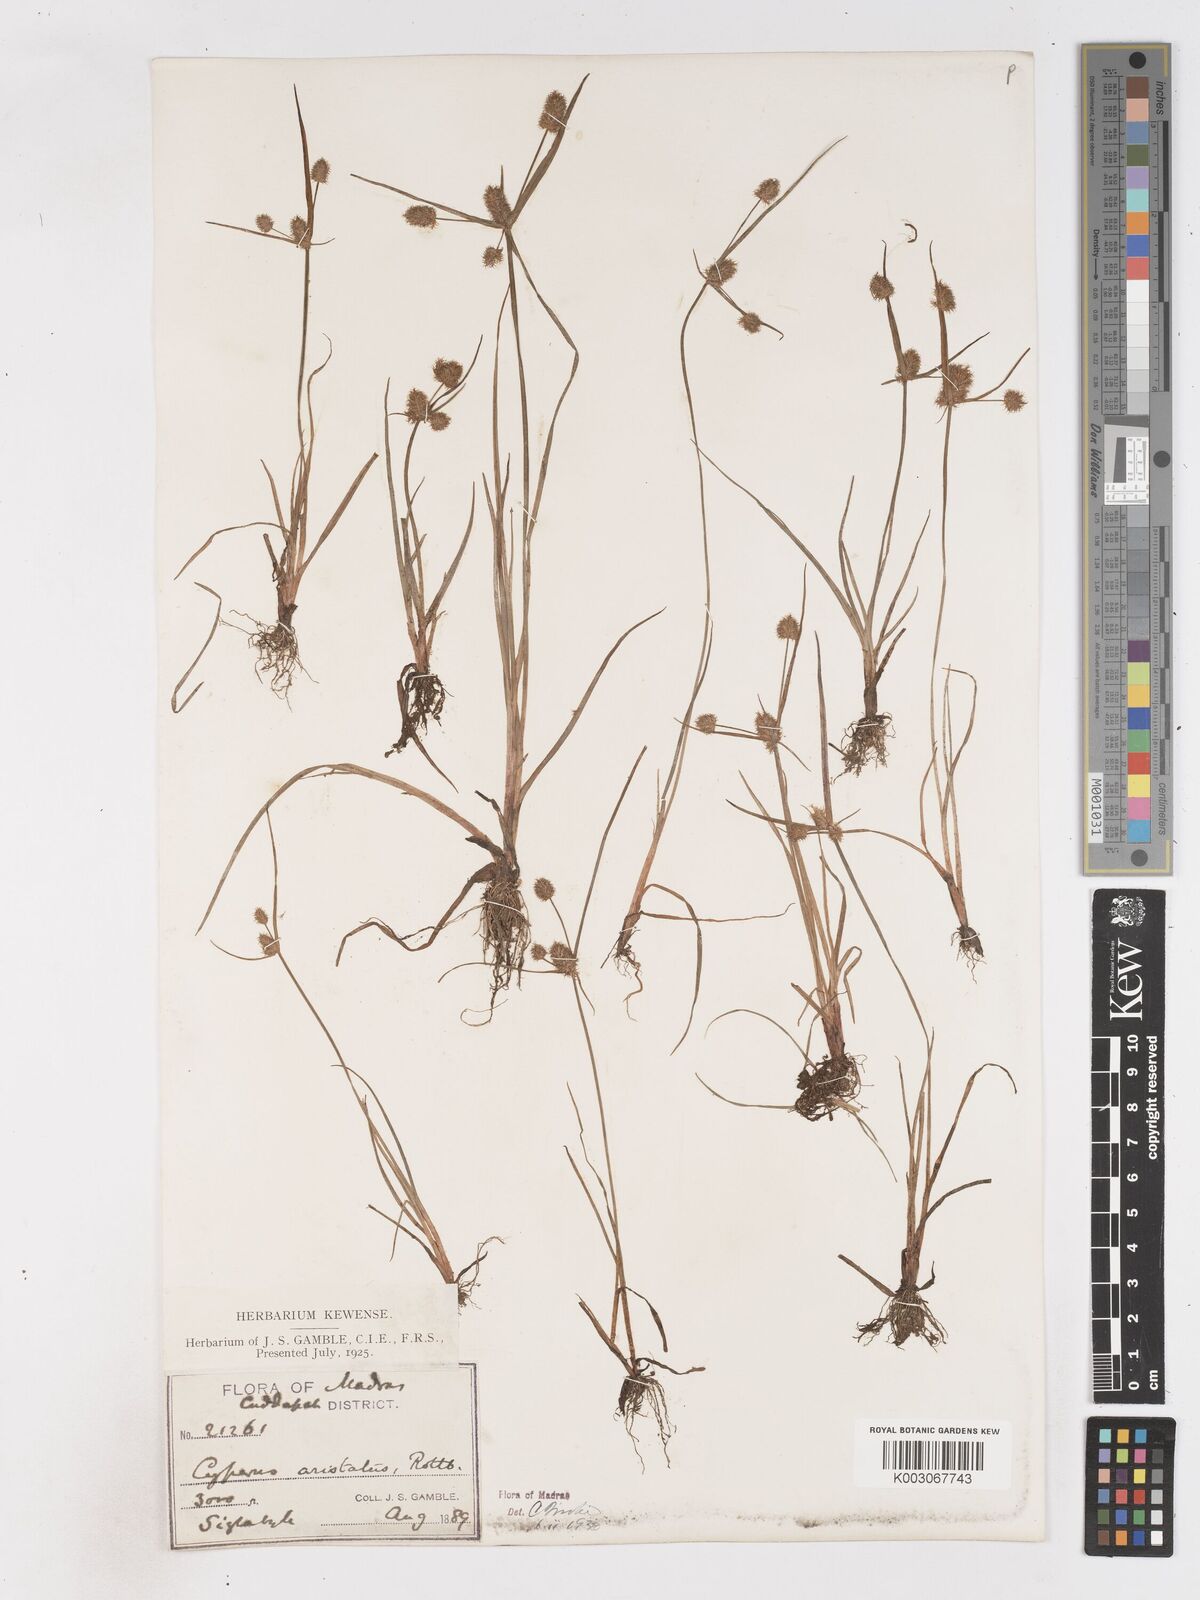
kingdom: Plantae
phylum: Tracheophyta
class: Liliopsida
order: Poales
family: Cyperaceae
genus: Cyperus
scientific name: Cyperus squarrosus
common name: Awned cyperus
